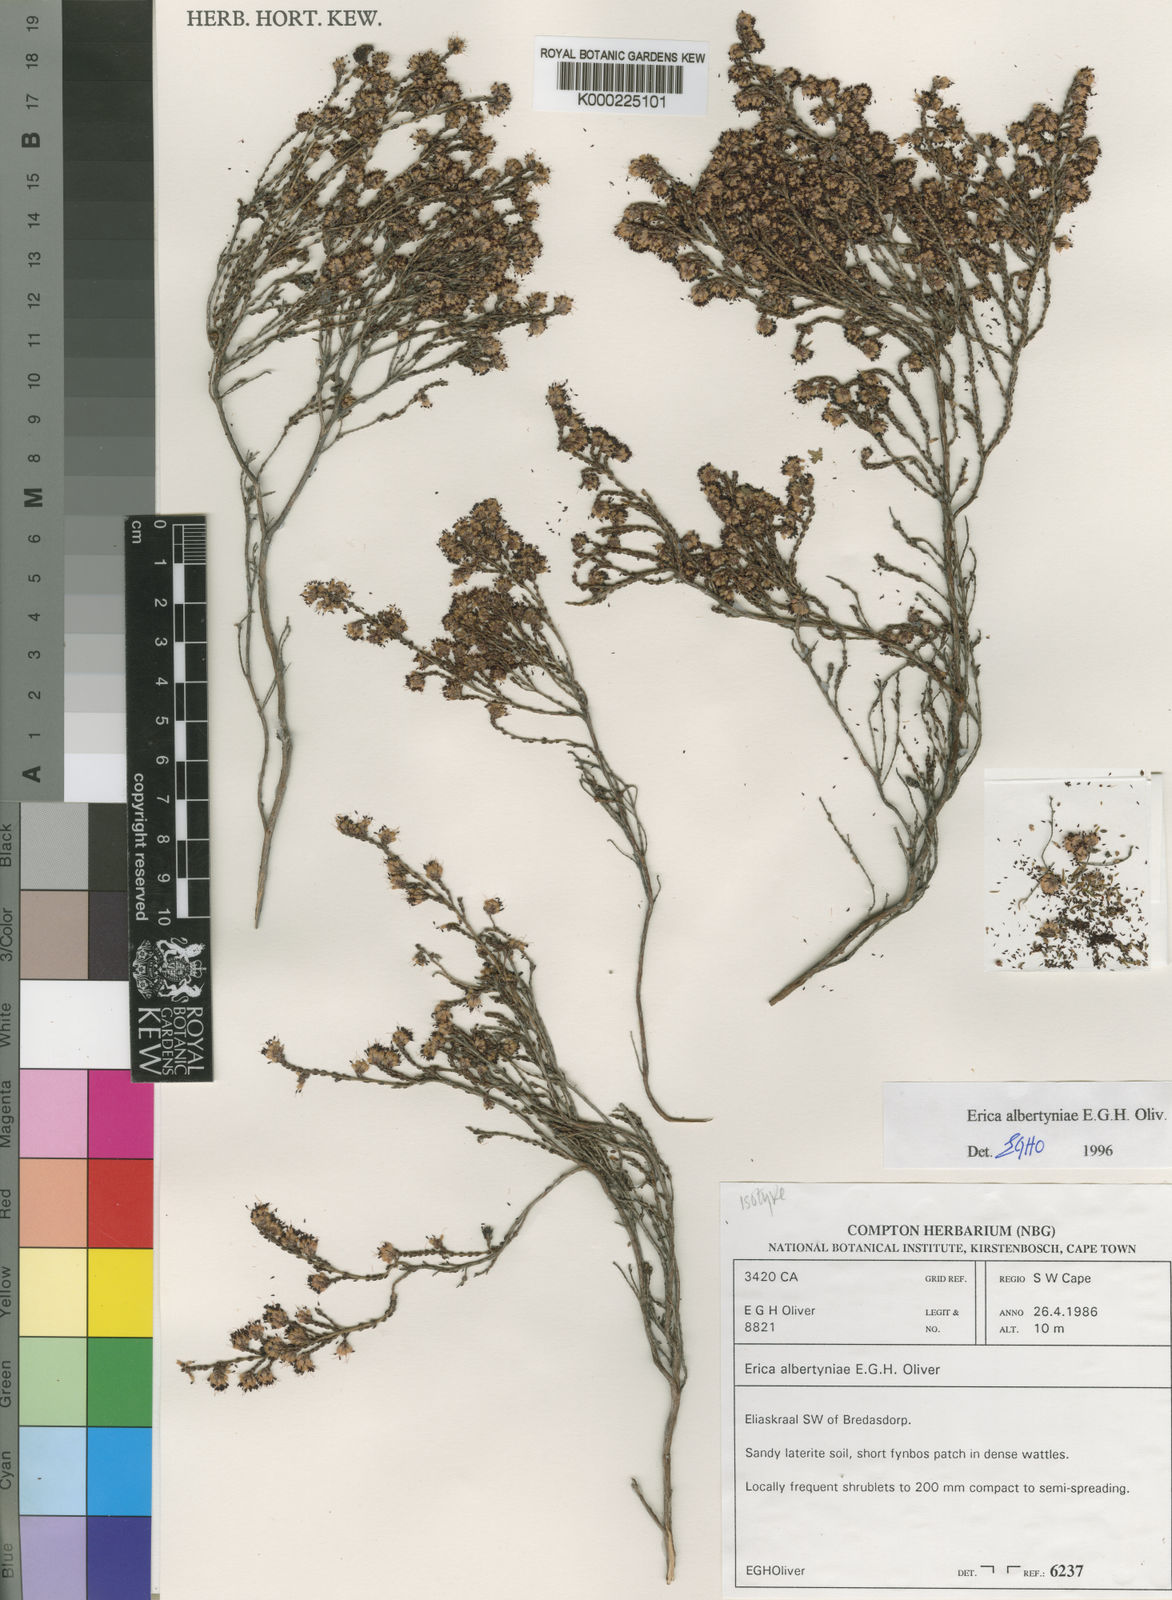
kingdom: Plantae
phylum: Tracheophyta
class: Magnoliopsida
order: Ericales
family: Ericaceae
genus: Erica
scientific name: Erica albertyniae
